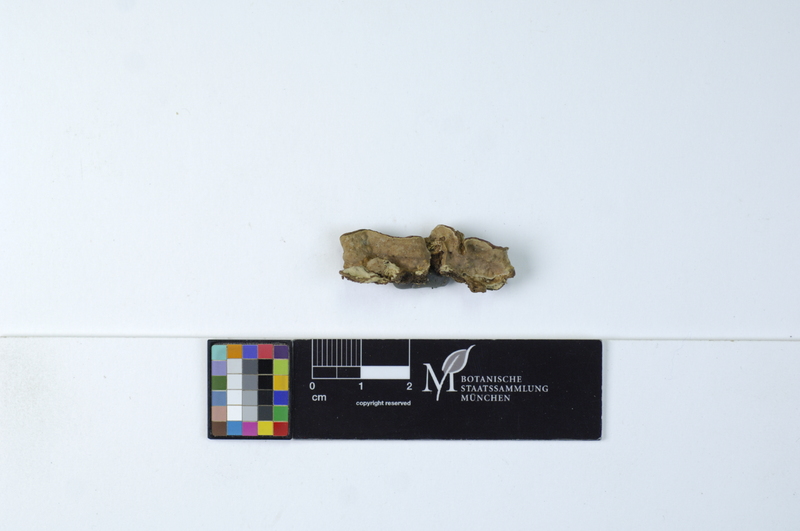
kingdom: Plantae
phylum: Tracheophyta
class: Pinopsida
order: Pinales
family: Pinaceae
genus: Picea
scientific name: Picea
